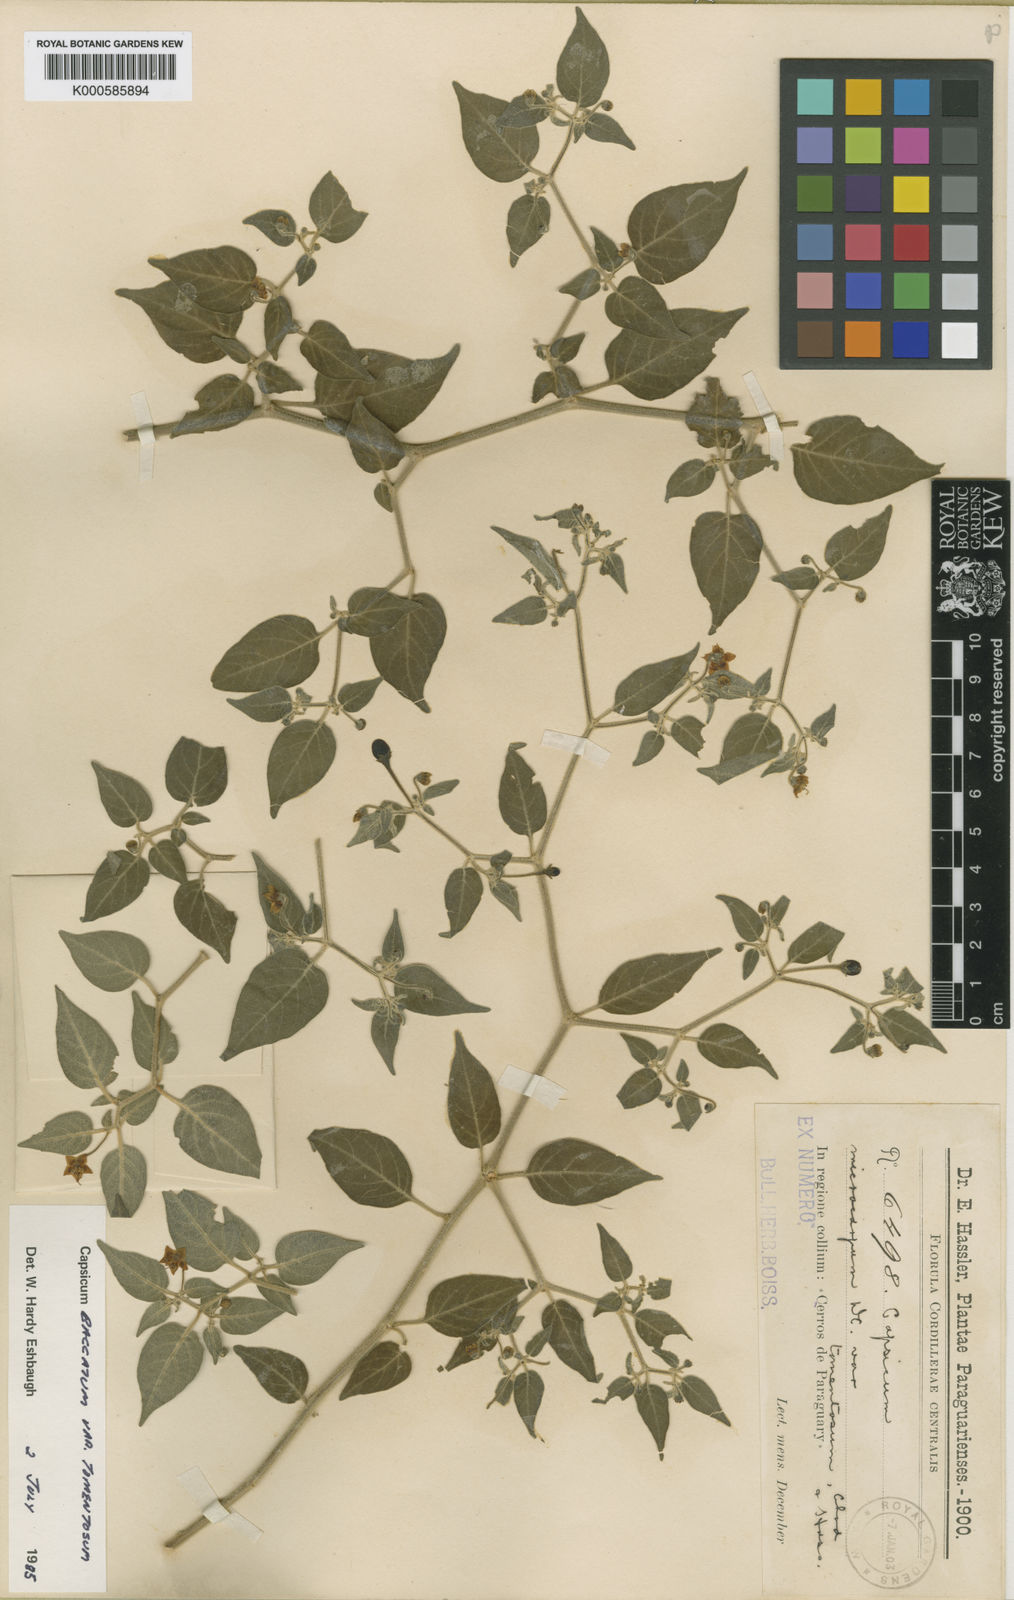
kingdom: Plantae
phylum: Tracheophyta
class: Magnoliopsida
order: Solanales
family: Solanaceae
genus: Capsicum
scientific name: Capsicum
